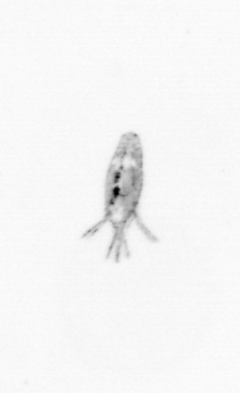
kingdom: Animalia
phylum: Arthropoda
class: Copepoda
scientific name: Copepoda
